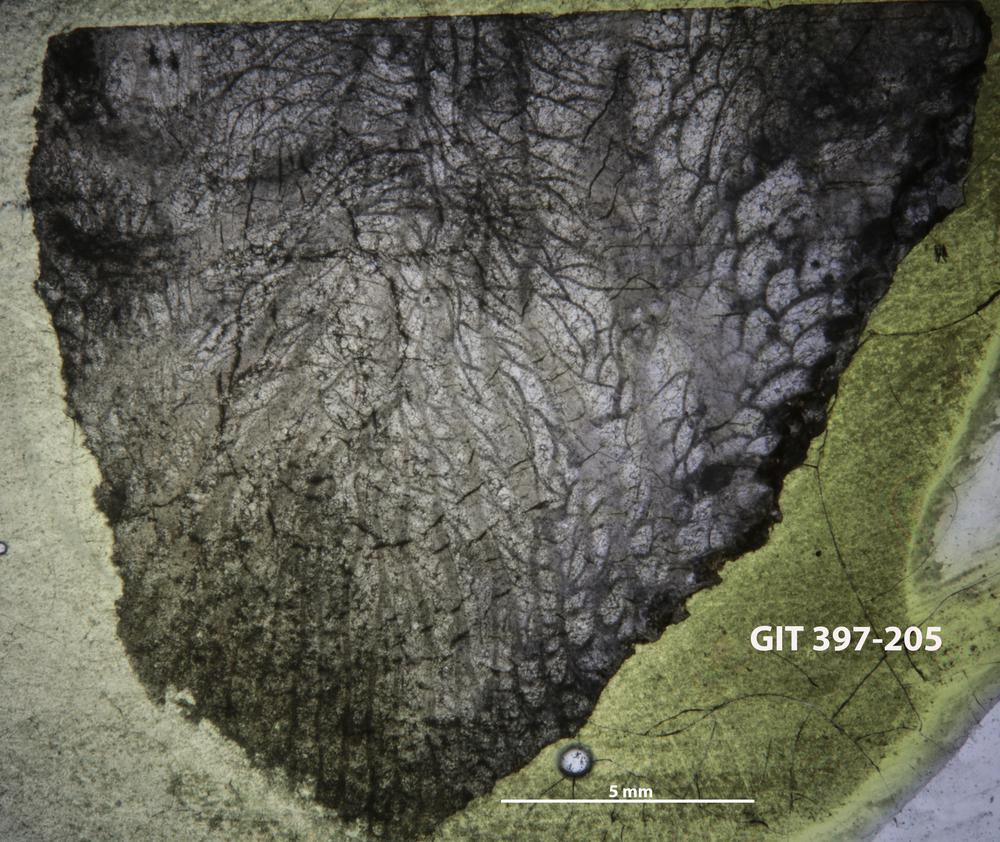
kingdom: Animalia
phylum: Cnidaria
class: Anthozoa
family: Paliphyllidae
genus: Paliphyllum
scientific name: Paliphyllum
